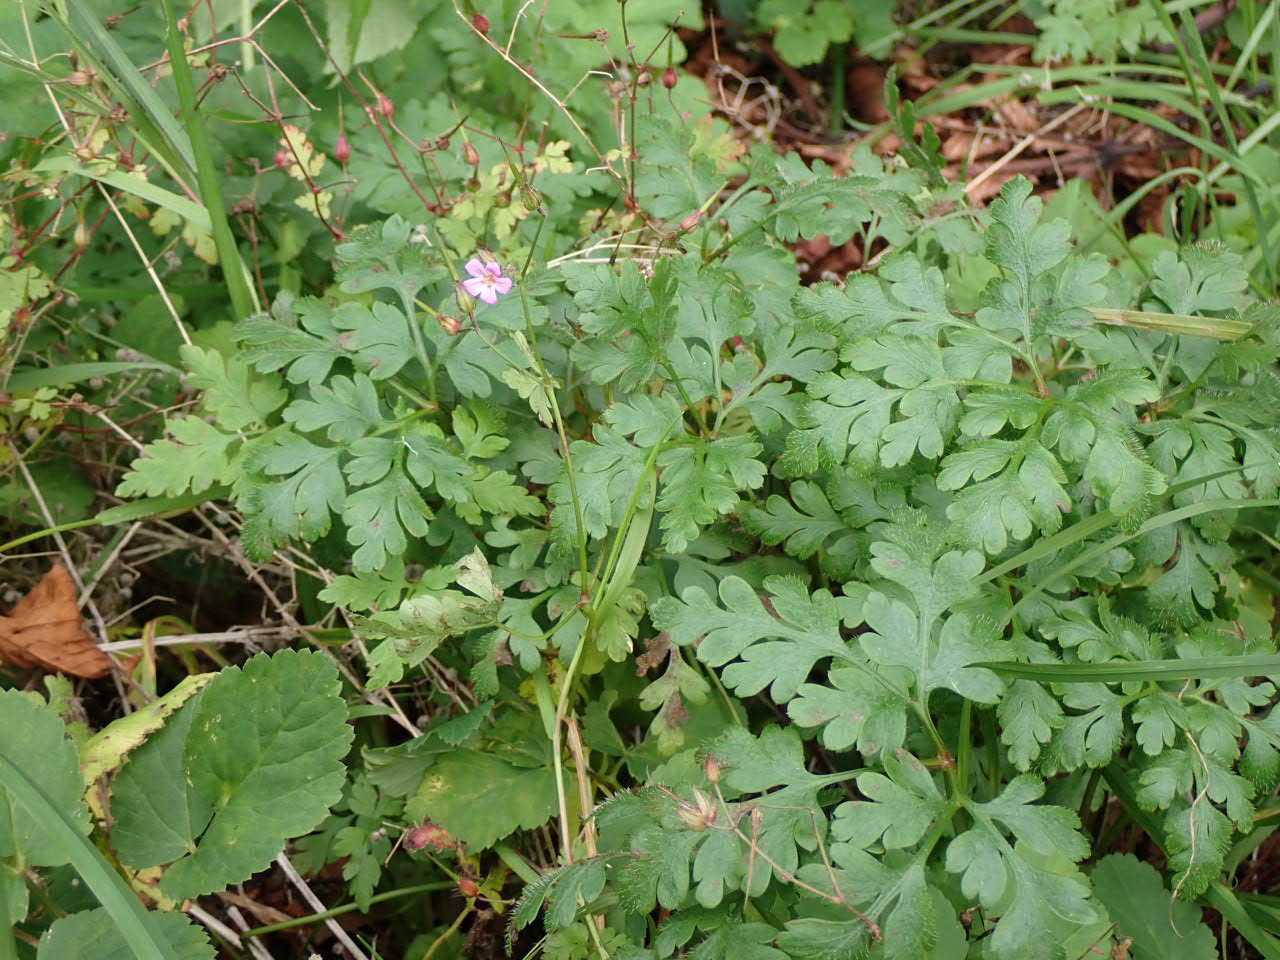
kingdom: Plantae
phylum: Tracheophyta
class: Magnoliopsida
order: Geraniales
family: Geraniaceae
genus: Geranium
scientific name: Geranium robertianum
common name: Stinkende storkenæb
